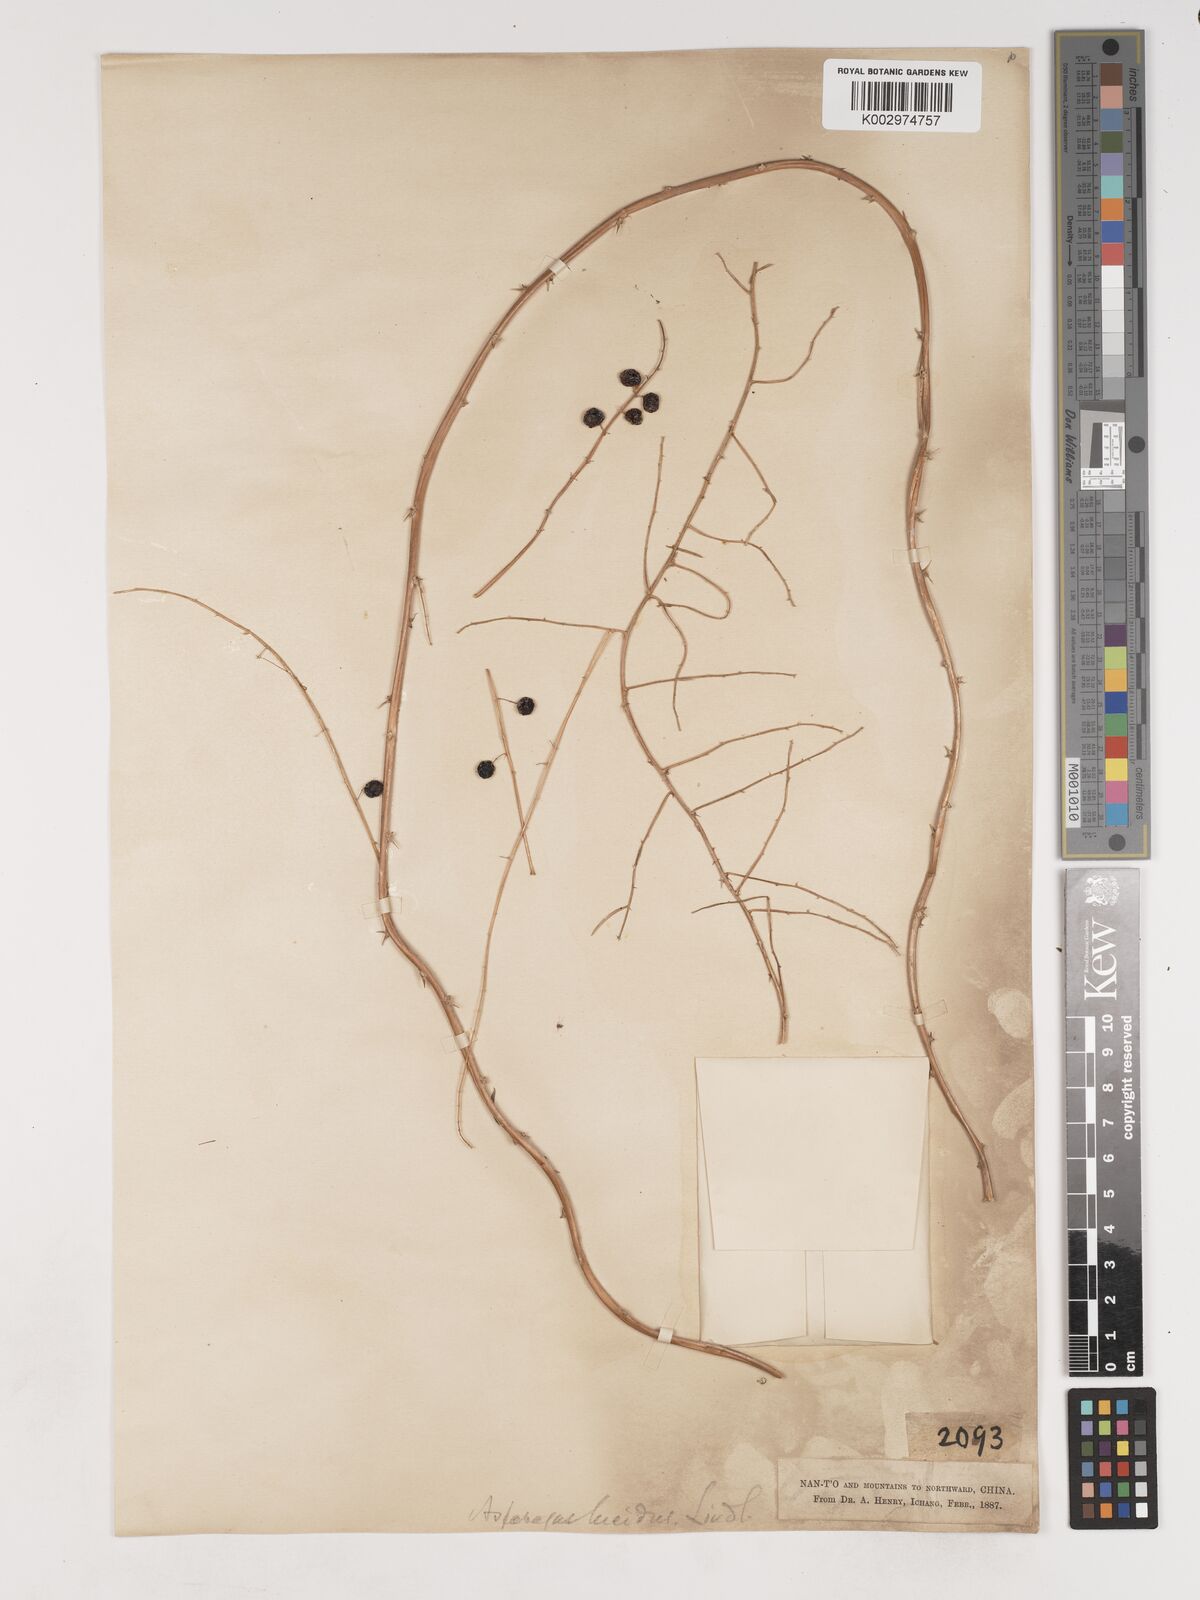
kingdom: Plantae
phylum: Tracheophyta
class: Liliopsida
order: Asparagales
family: Asparagaceae
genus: Asparagus
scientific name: Asparagus
